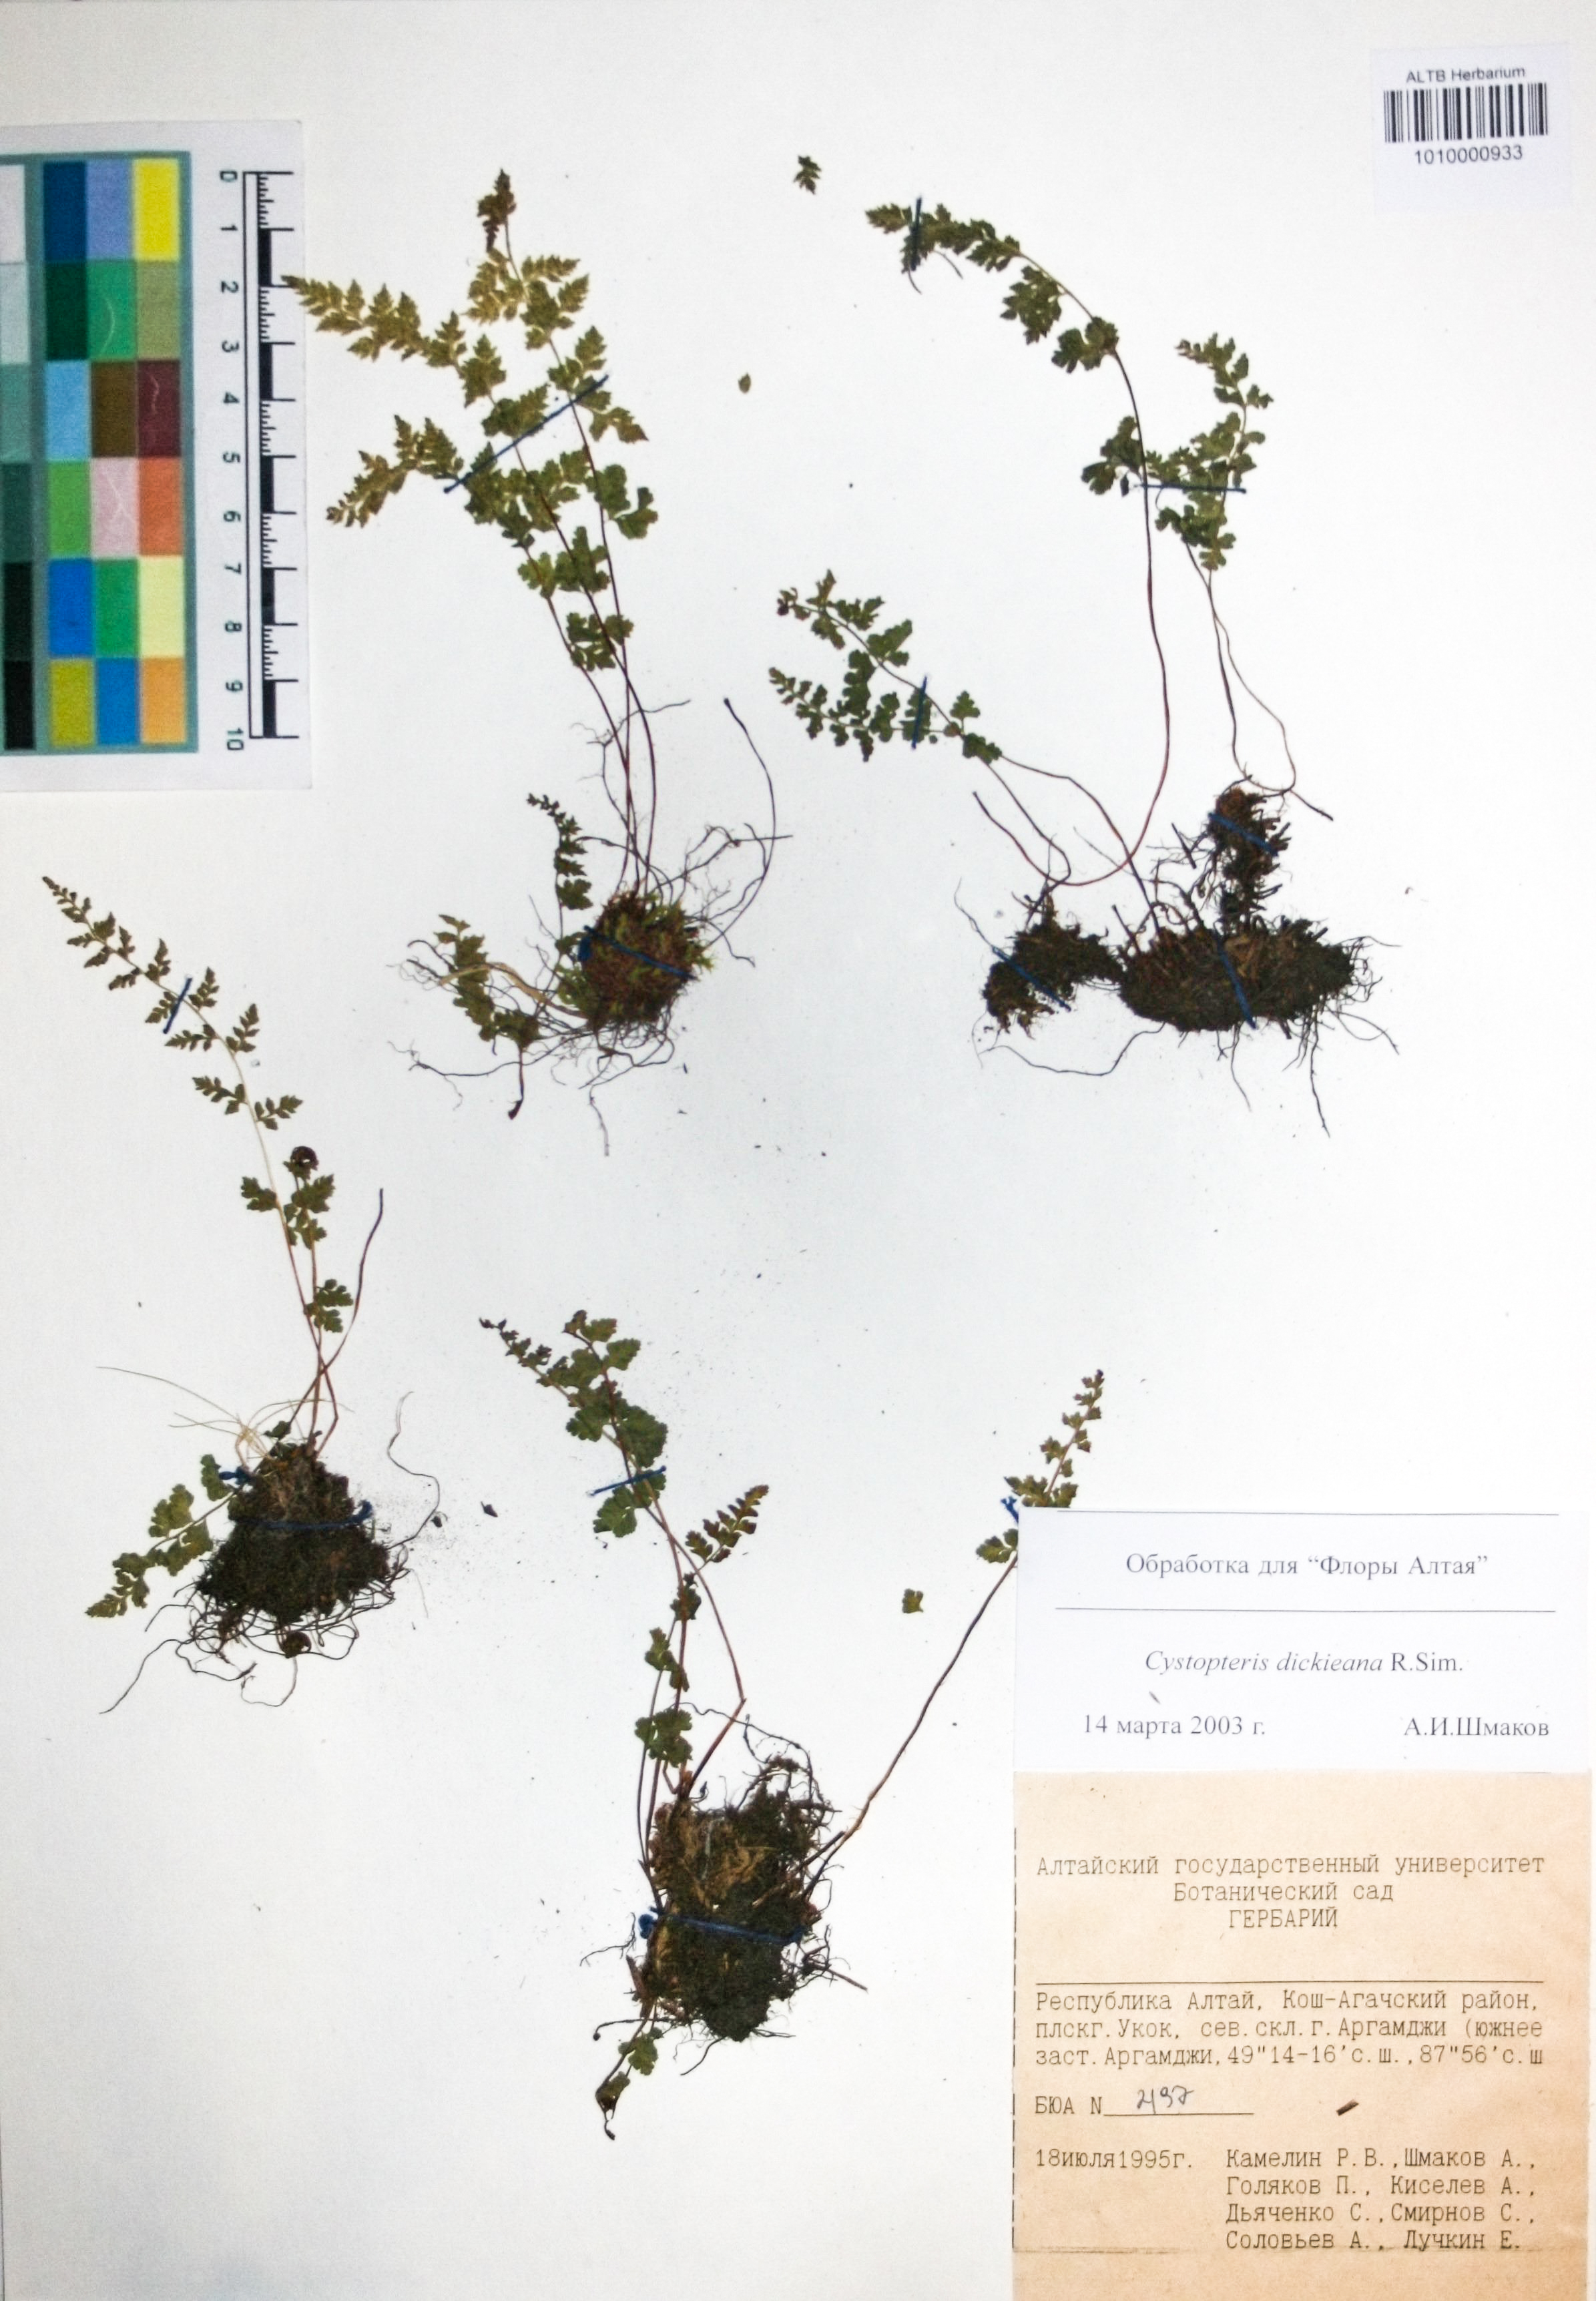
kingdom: Plantae
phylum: Tracheophyta
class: Polypodiopsida
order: Polypodiales
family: Cystopteridaceae
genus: Cystopteris
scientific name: Cystopteris fragilis
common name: Brittle bladder fern
